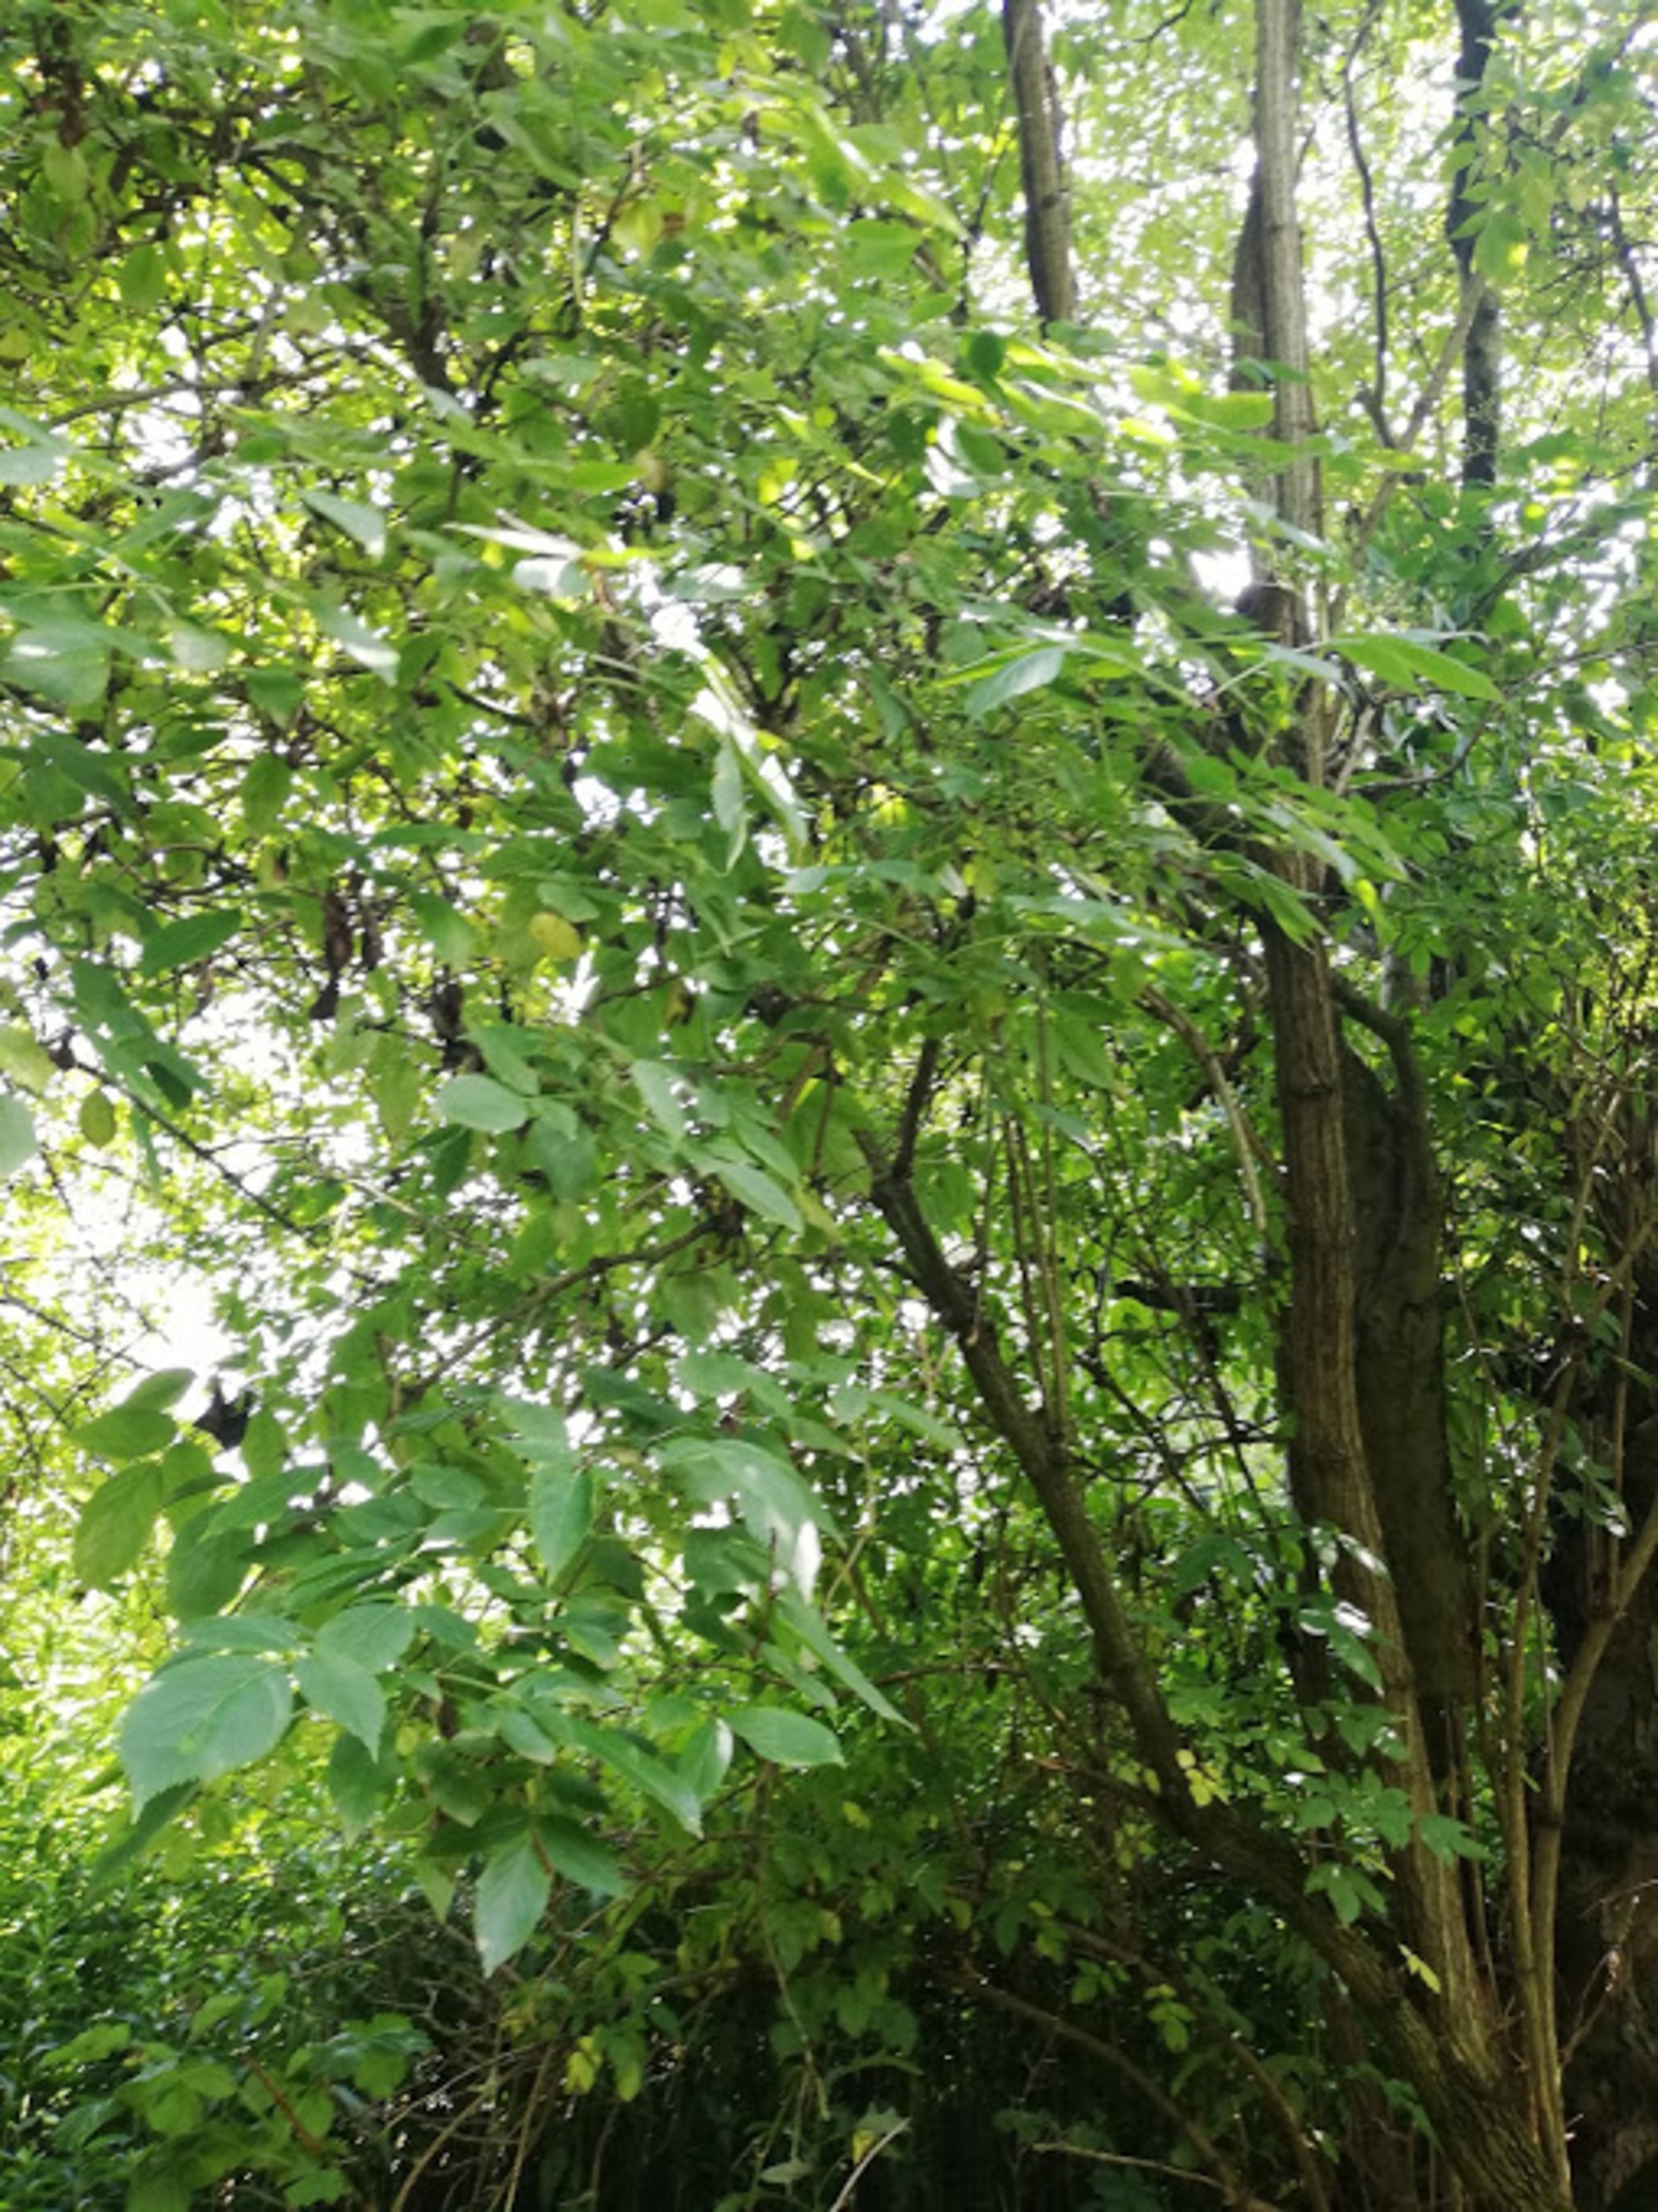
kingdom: Plantae
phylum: Tracheophyta
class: Magnoliopsida
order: Dipsacales
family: Viburnaceae
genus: Sambucus
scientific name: Sambucus nigra
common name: Almindelig hyld
